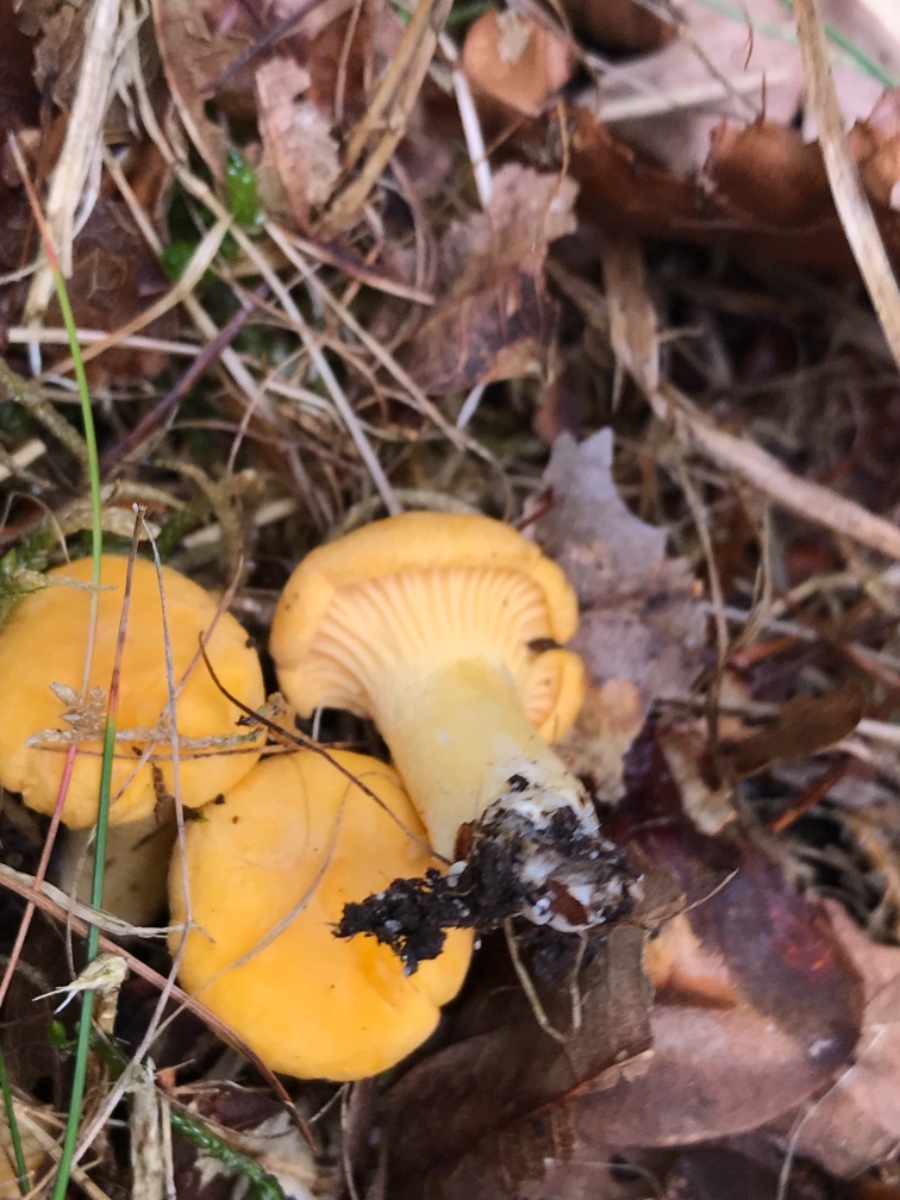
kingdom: Fungi
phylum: Basidiomycota
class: Agaricomycetes
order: Cantharellales
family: Hydnaceae
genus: Cantharellus
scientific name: Cantharellus cibarius
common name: almindelig kantarel
